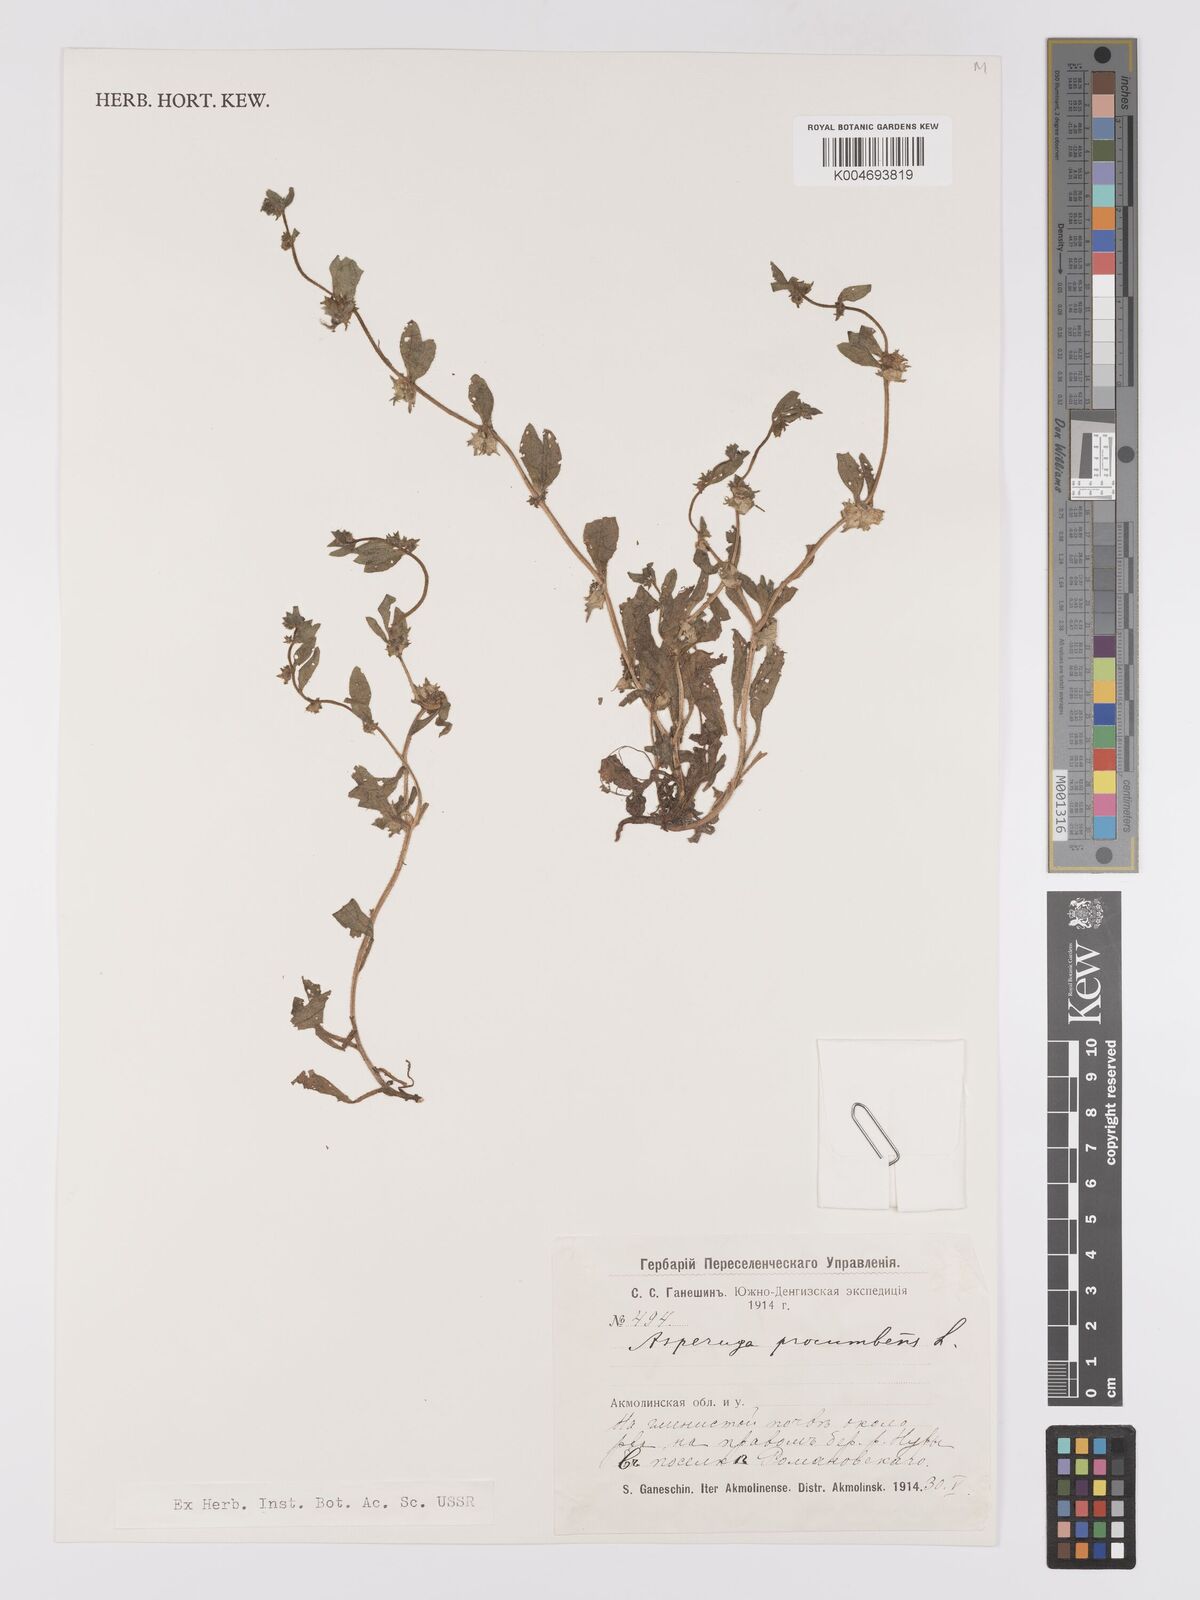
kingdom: Plantae
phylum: Tracheophyta
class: Magnoliopsida
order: Boraginales
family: Boraginaceae
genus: Asperugo
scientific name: Asperugo procumbens
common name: Madwort
